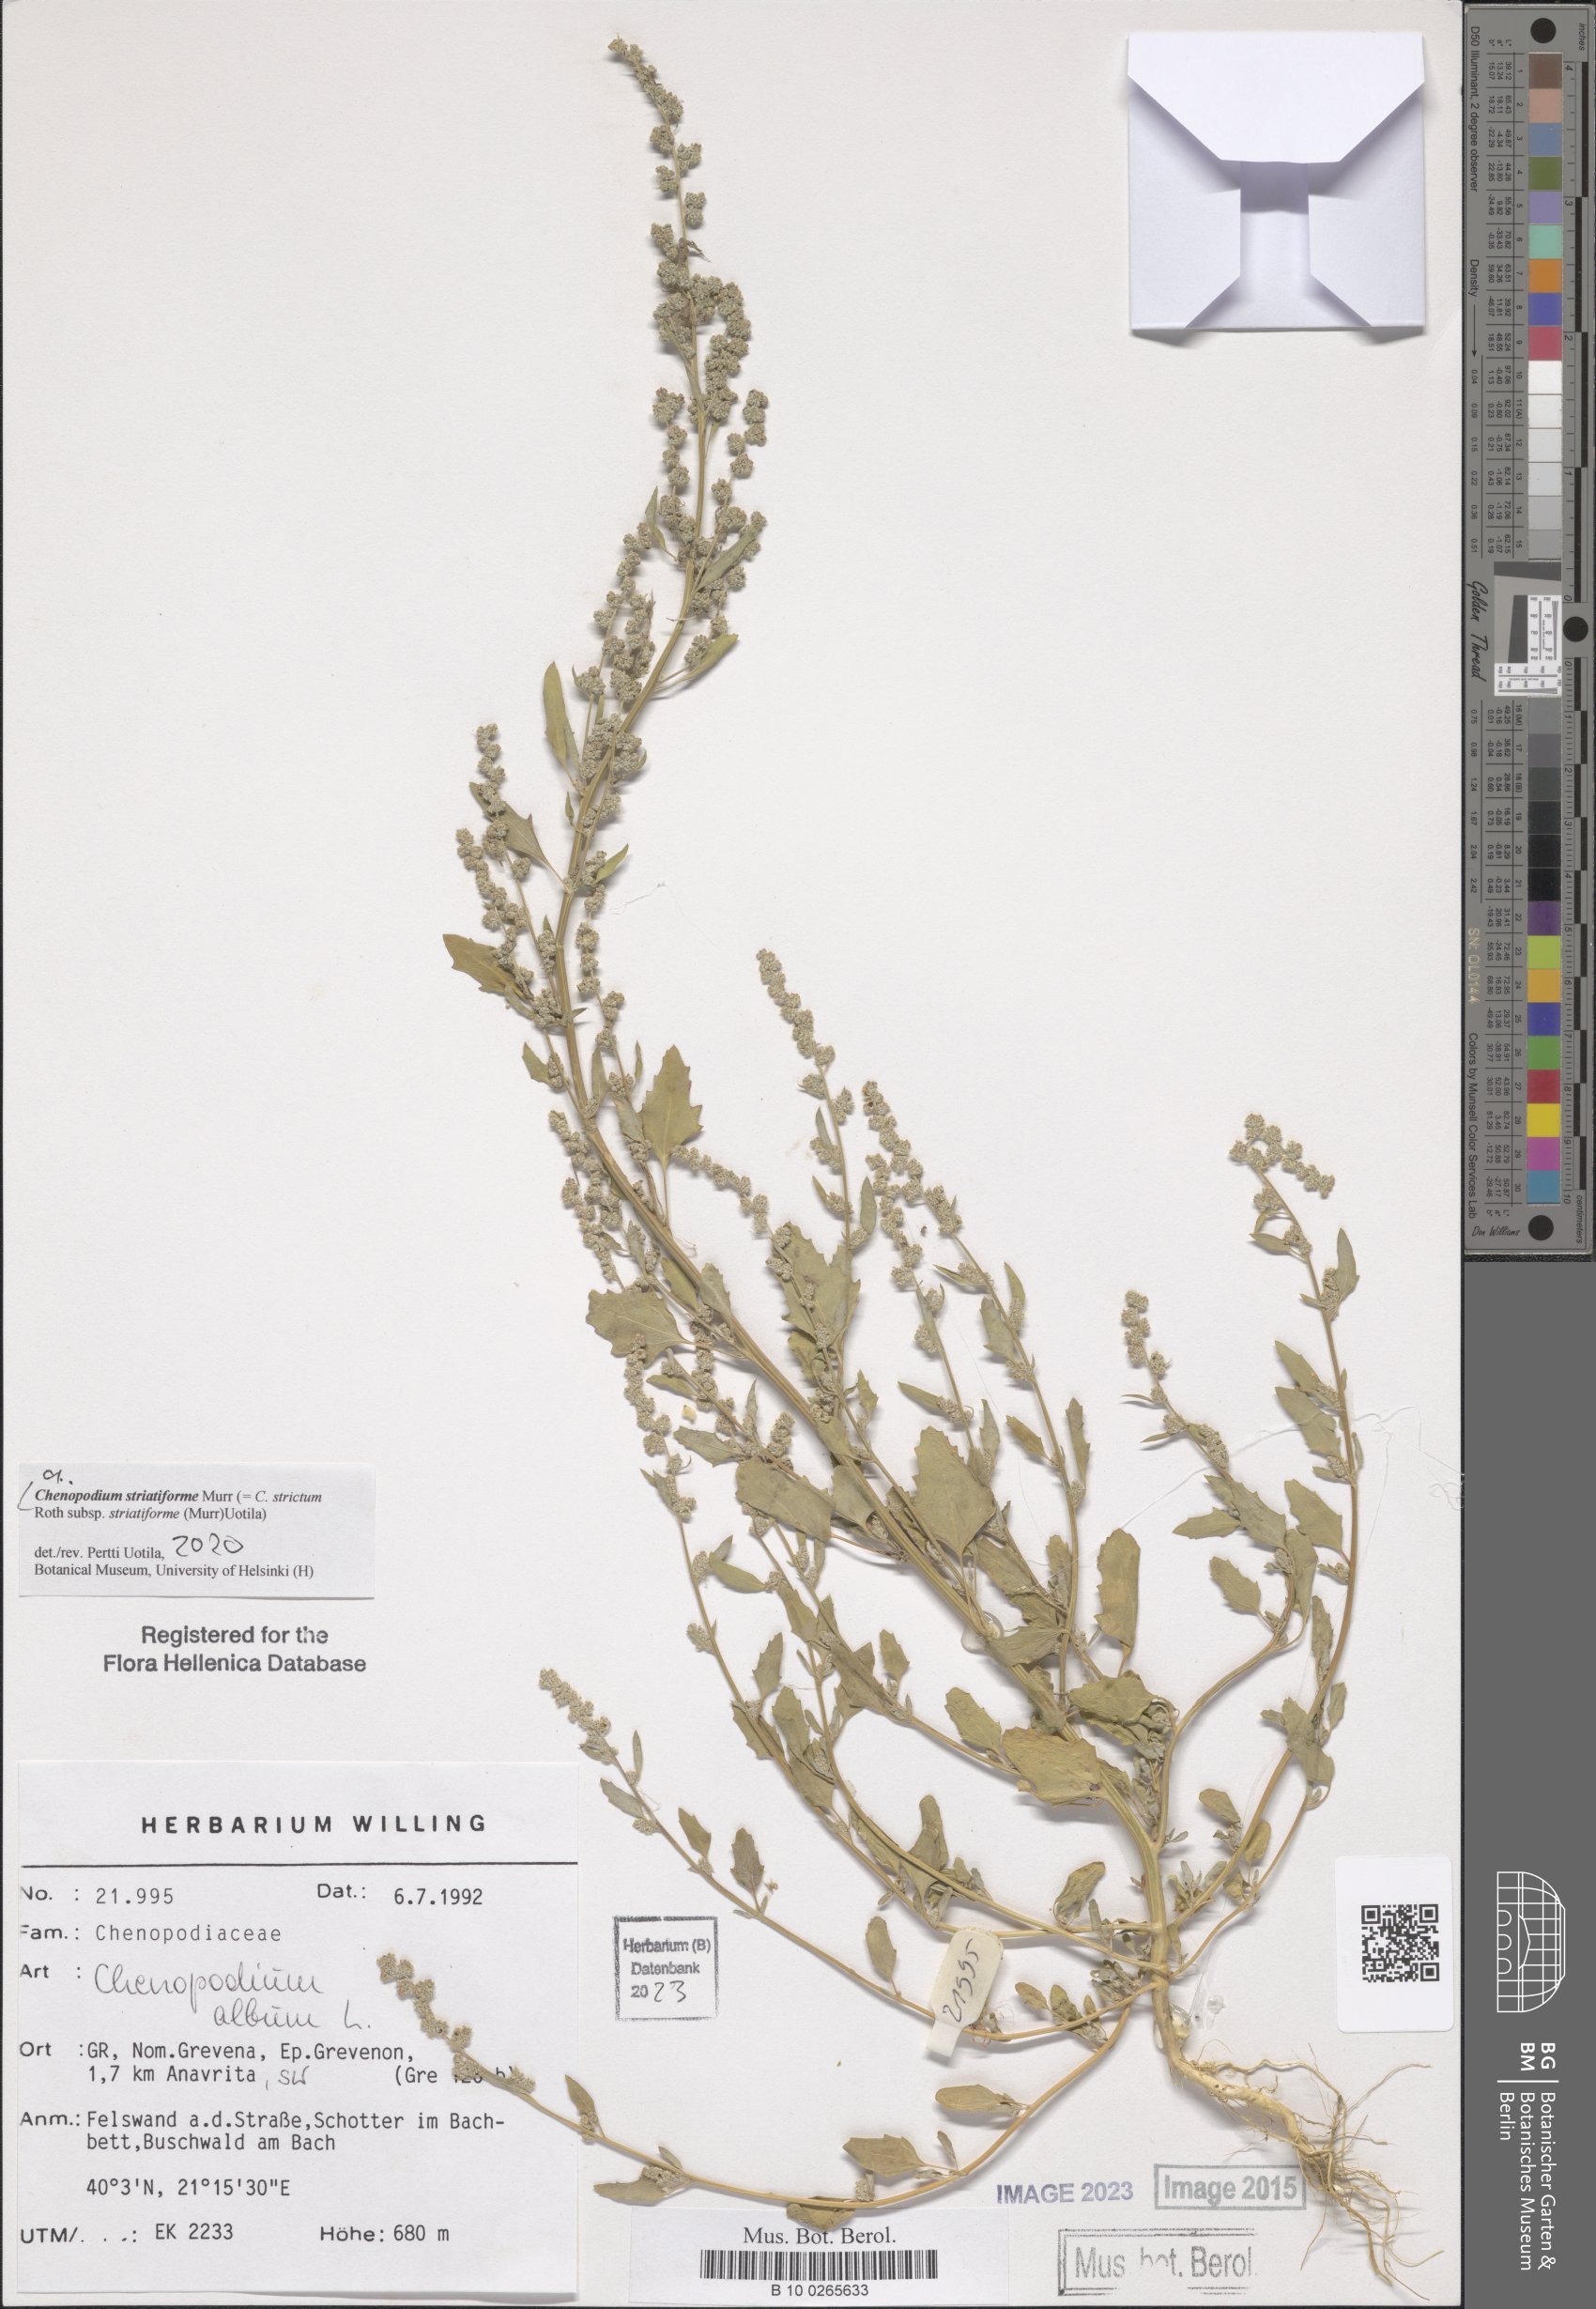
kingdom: Plantae
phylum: Tracheophyta
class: Magnoliopsida
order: Caryophyllales
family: Amaranthaceae
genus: Chenopodium
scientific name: Chenopodium striatiforme
